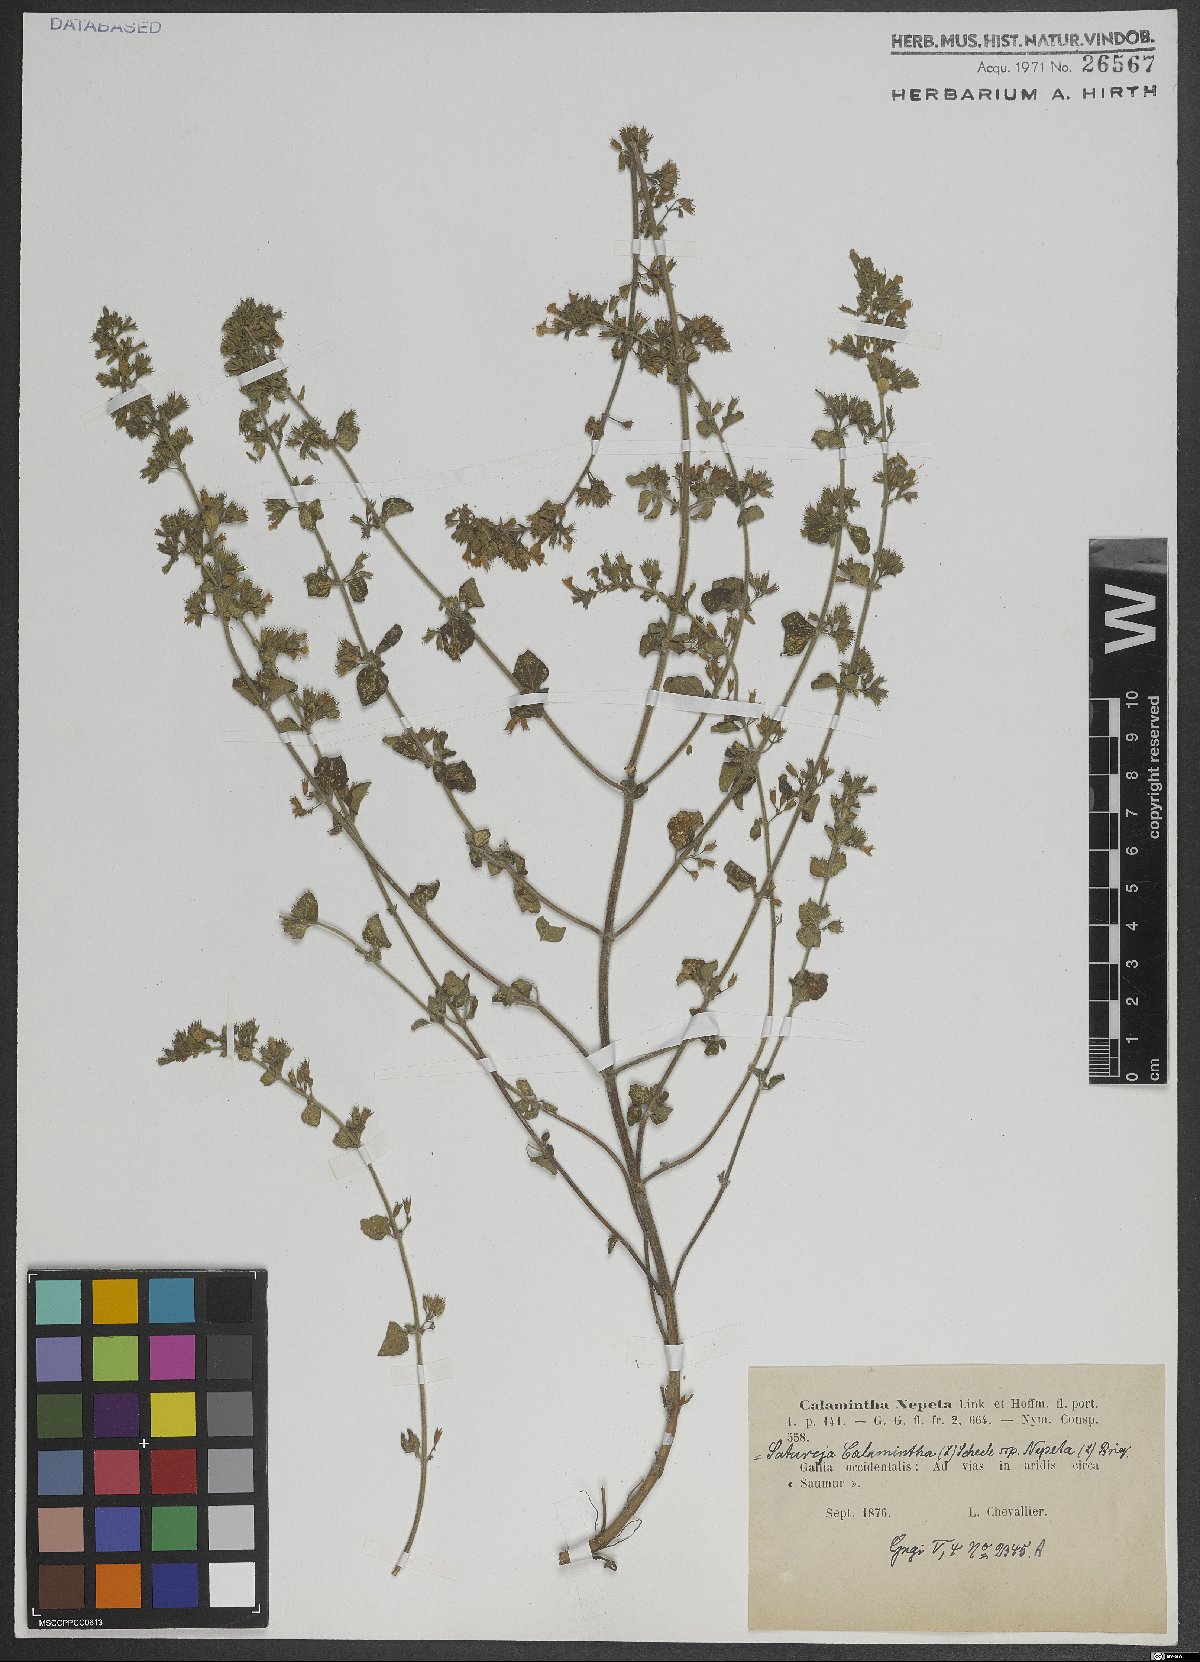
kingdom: Plantae
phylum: Tracheophyta
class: Magnoliopsida
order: Lamiales
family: Lamiaceae
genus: Clinopodium
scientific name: Clinopodium nepeta
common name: Lesser calamint
